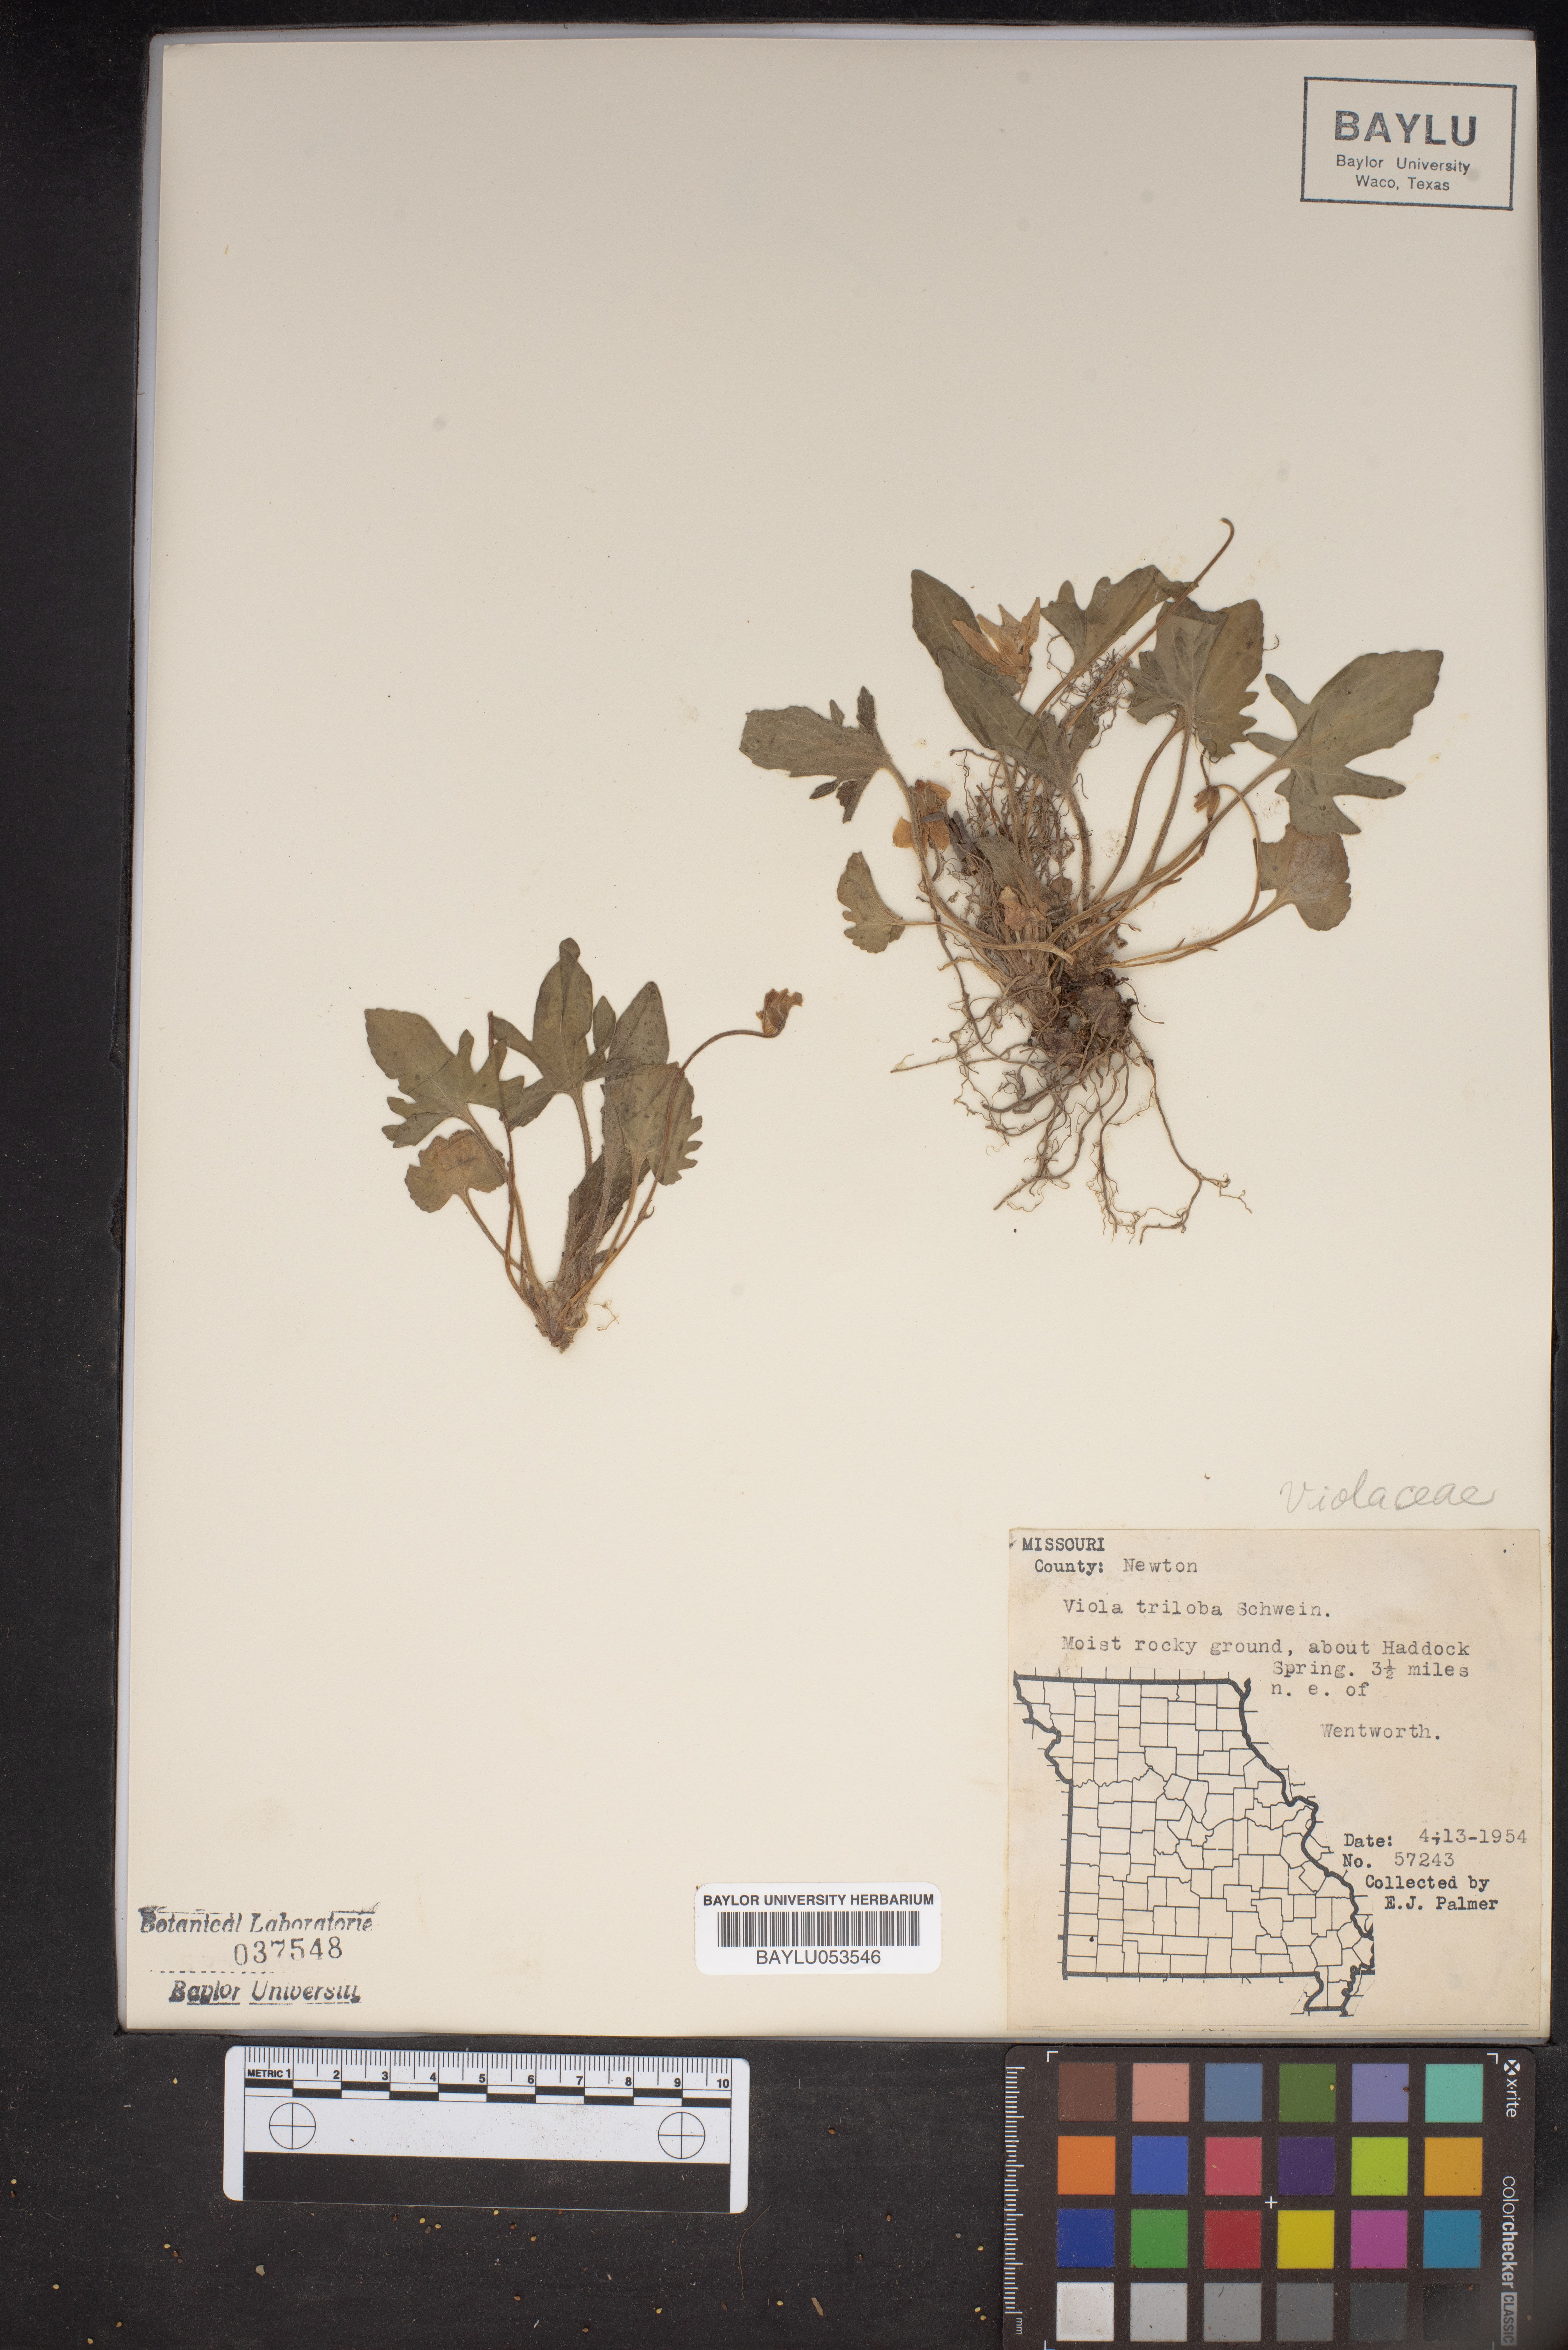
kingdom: Plantae
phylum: Tracheophyta
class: Magnoliopsida
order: Malpighiales
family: Violaceae
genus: Viola
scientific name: Viola palmata
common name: Early blue violet
